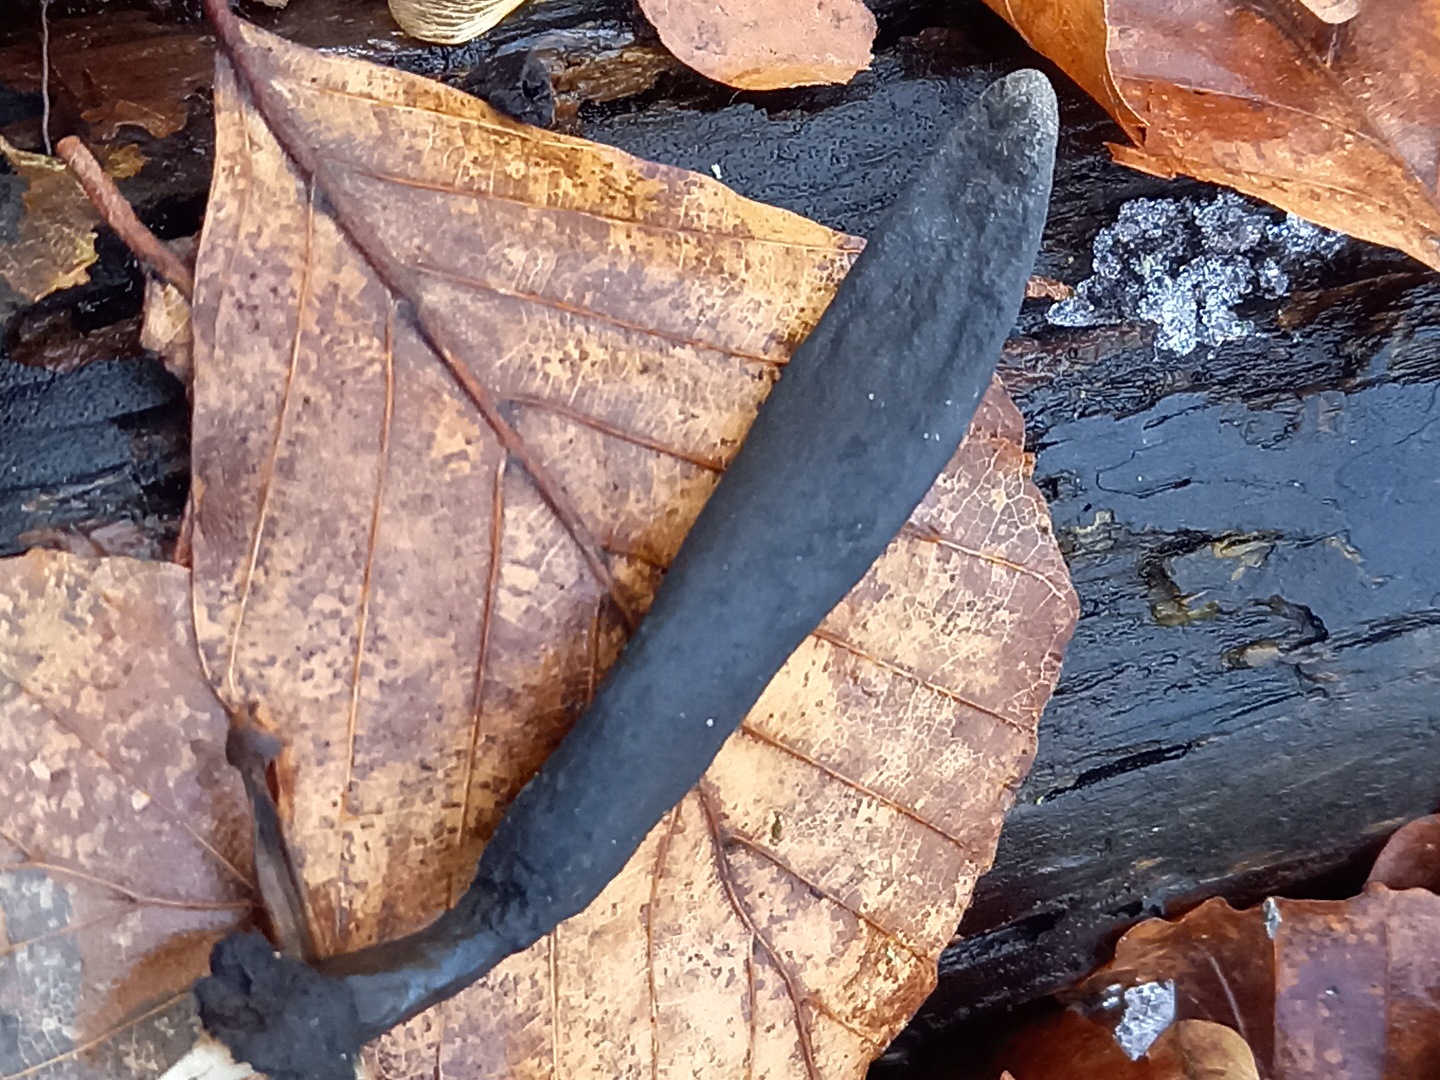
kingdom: Fungi
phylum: Ascomycota
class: Sordariomycetes
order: Xylariales
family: Xylariaceae
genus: Xylaria
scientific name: Xylaria longipes
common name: slank stødsvamp
